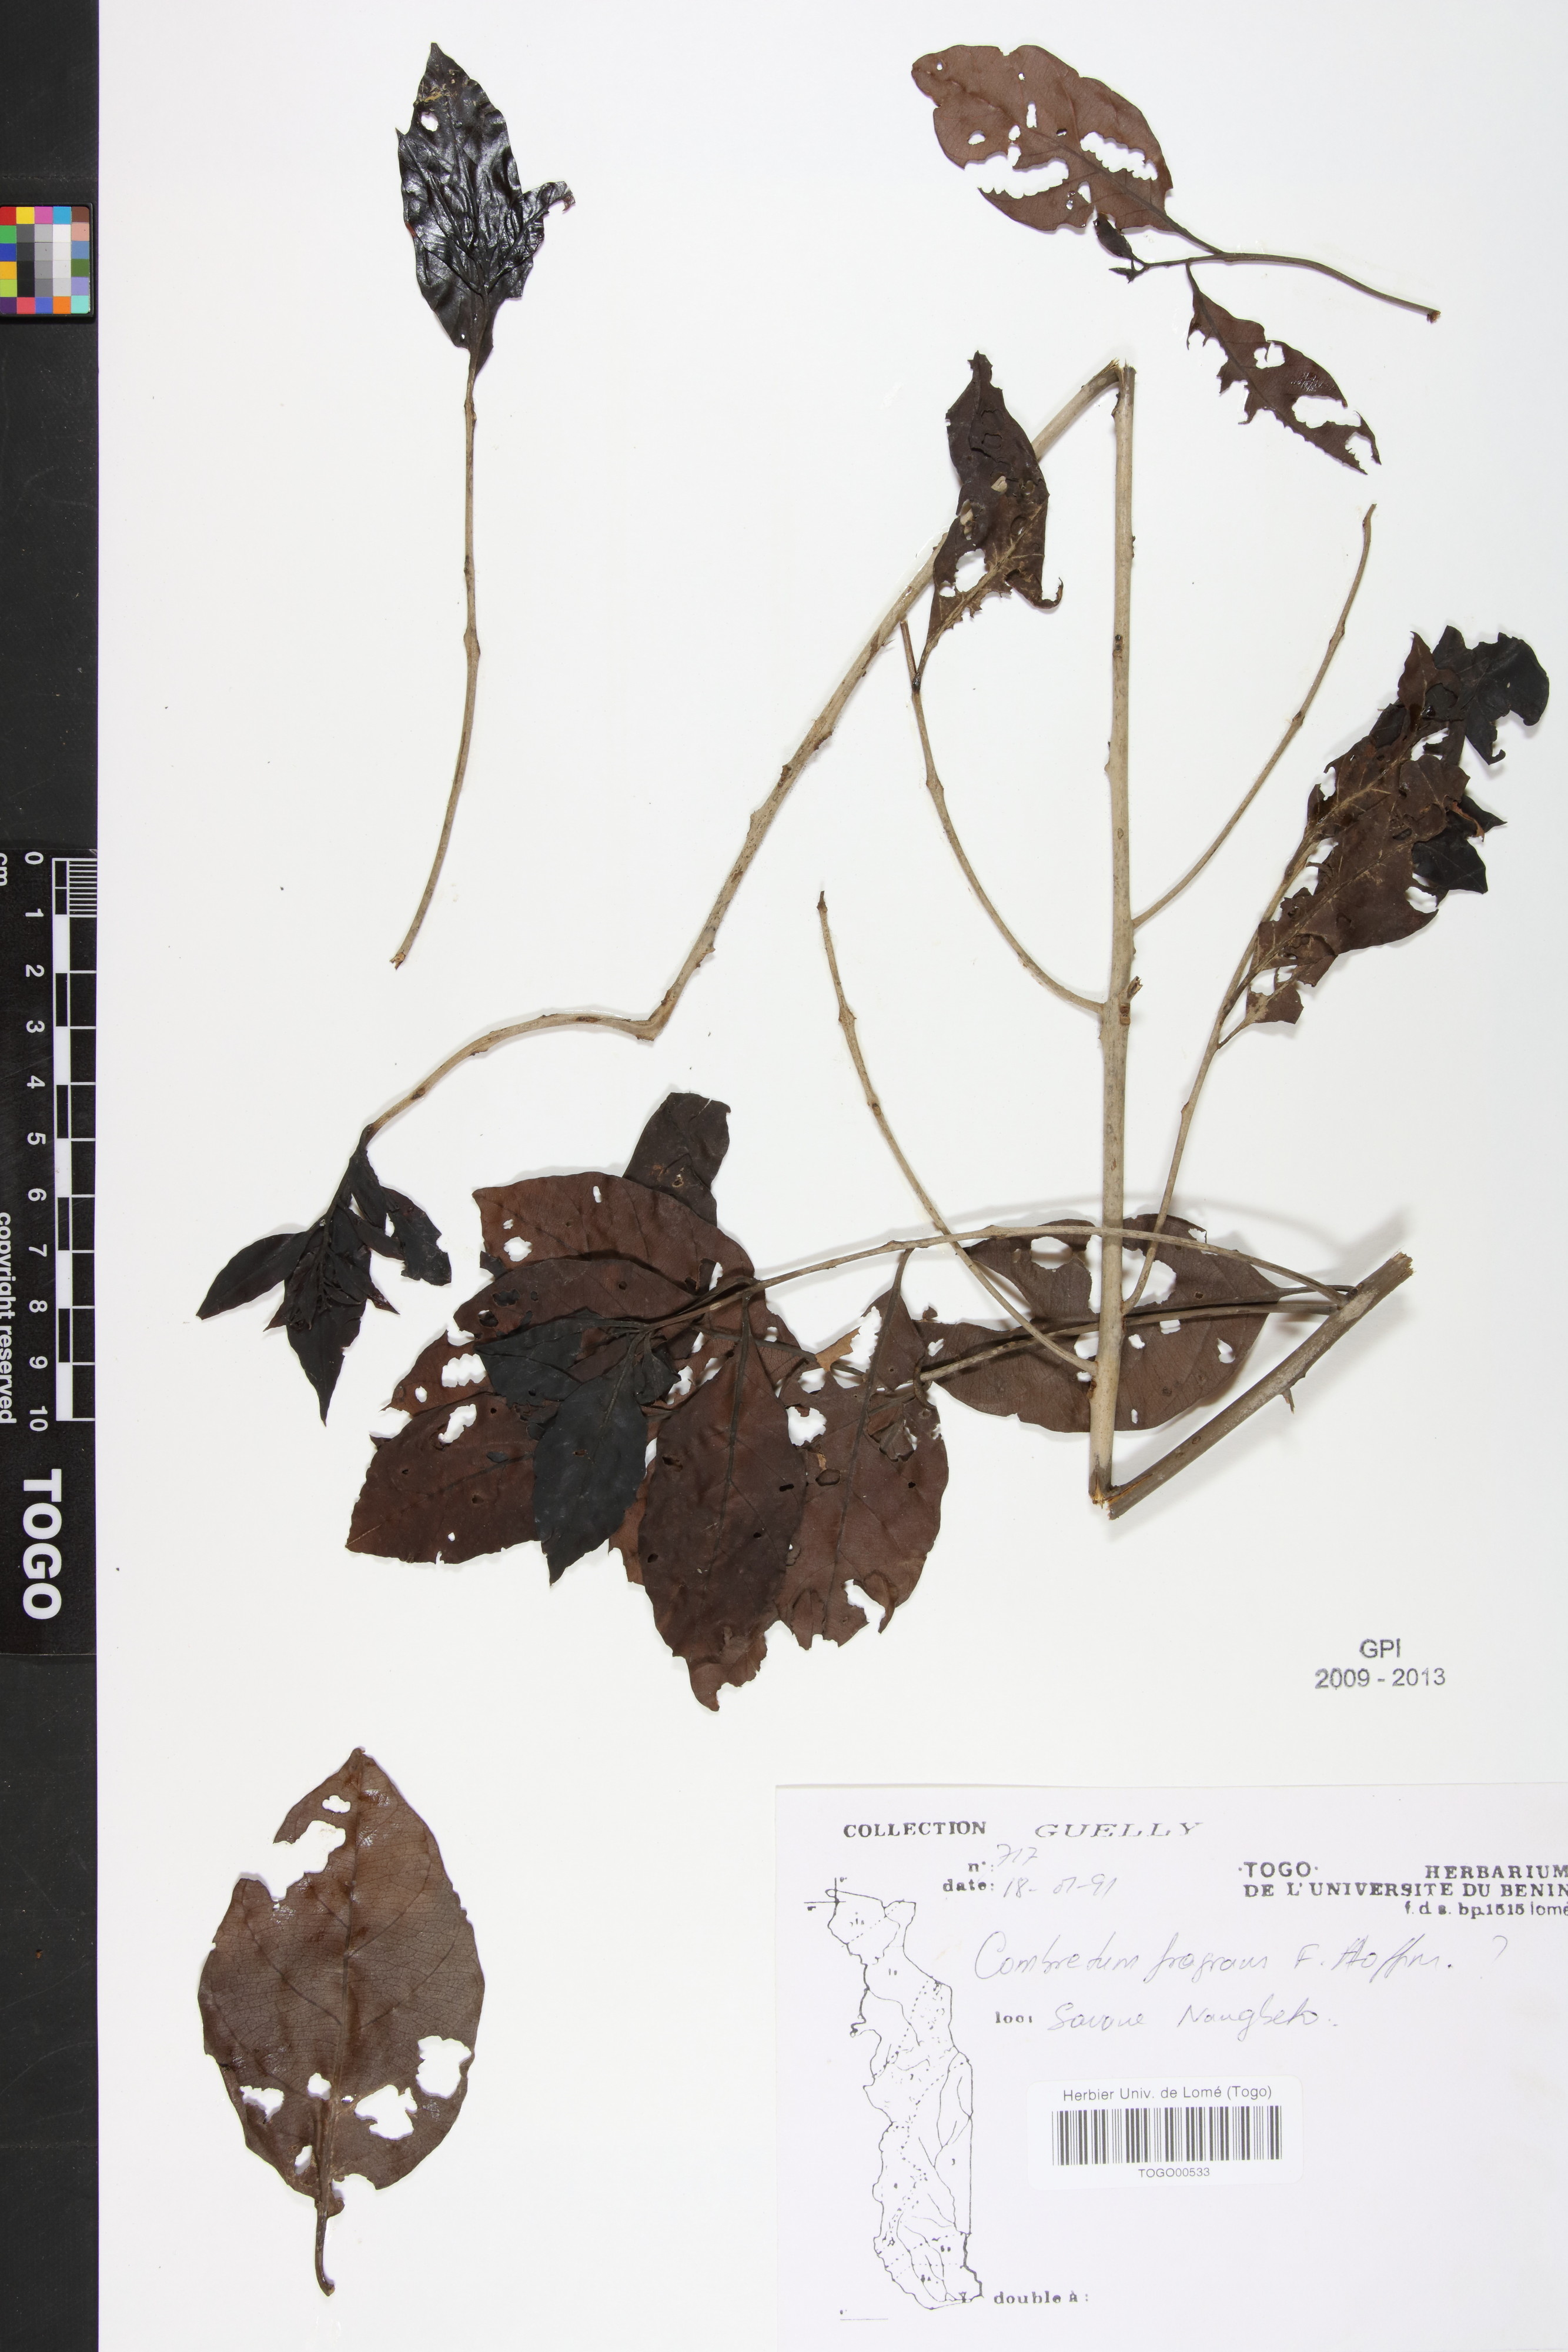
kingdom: Plantae
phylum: Tracheophyta
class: Magnoliopsida
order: Myrtales
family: Combretaceae
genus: Combretum
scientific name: Combretum adenogonium
